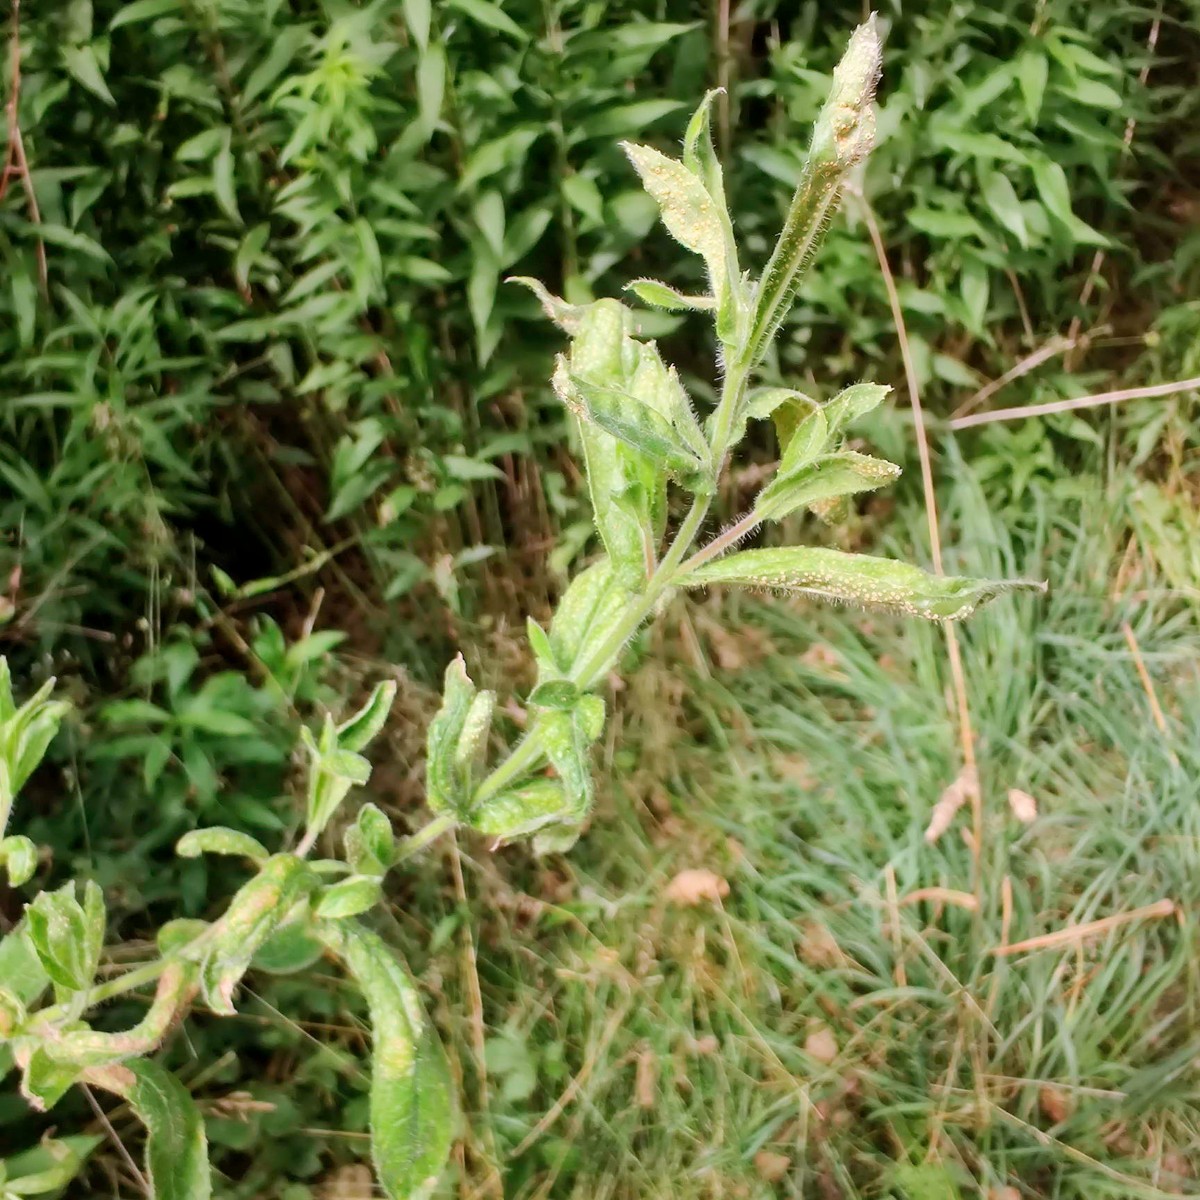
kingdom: Fungi
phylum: Basidiomycota
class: Pucciniomycetes
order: Pucciniales
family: Pucciniaceae
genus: Puccinia
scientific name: Puccinia pulverulenta
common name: dueurt-tvecellerust
